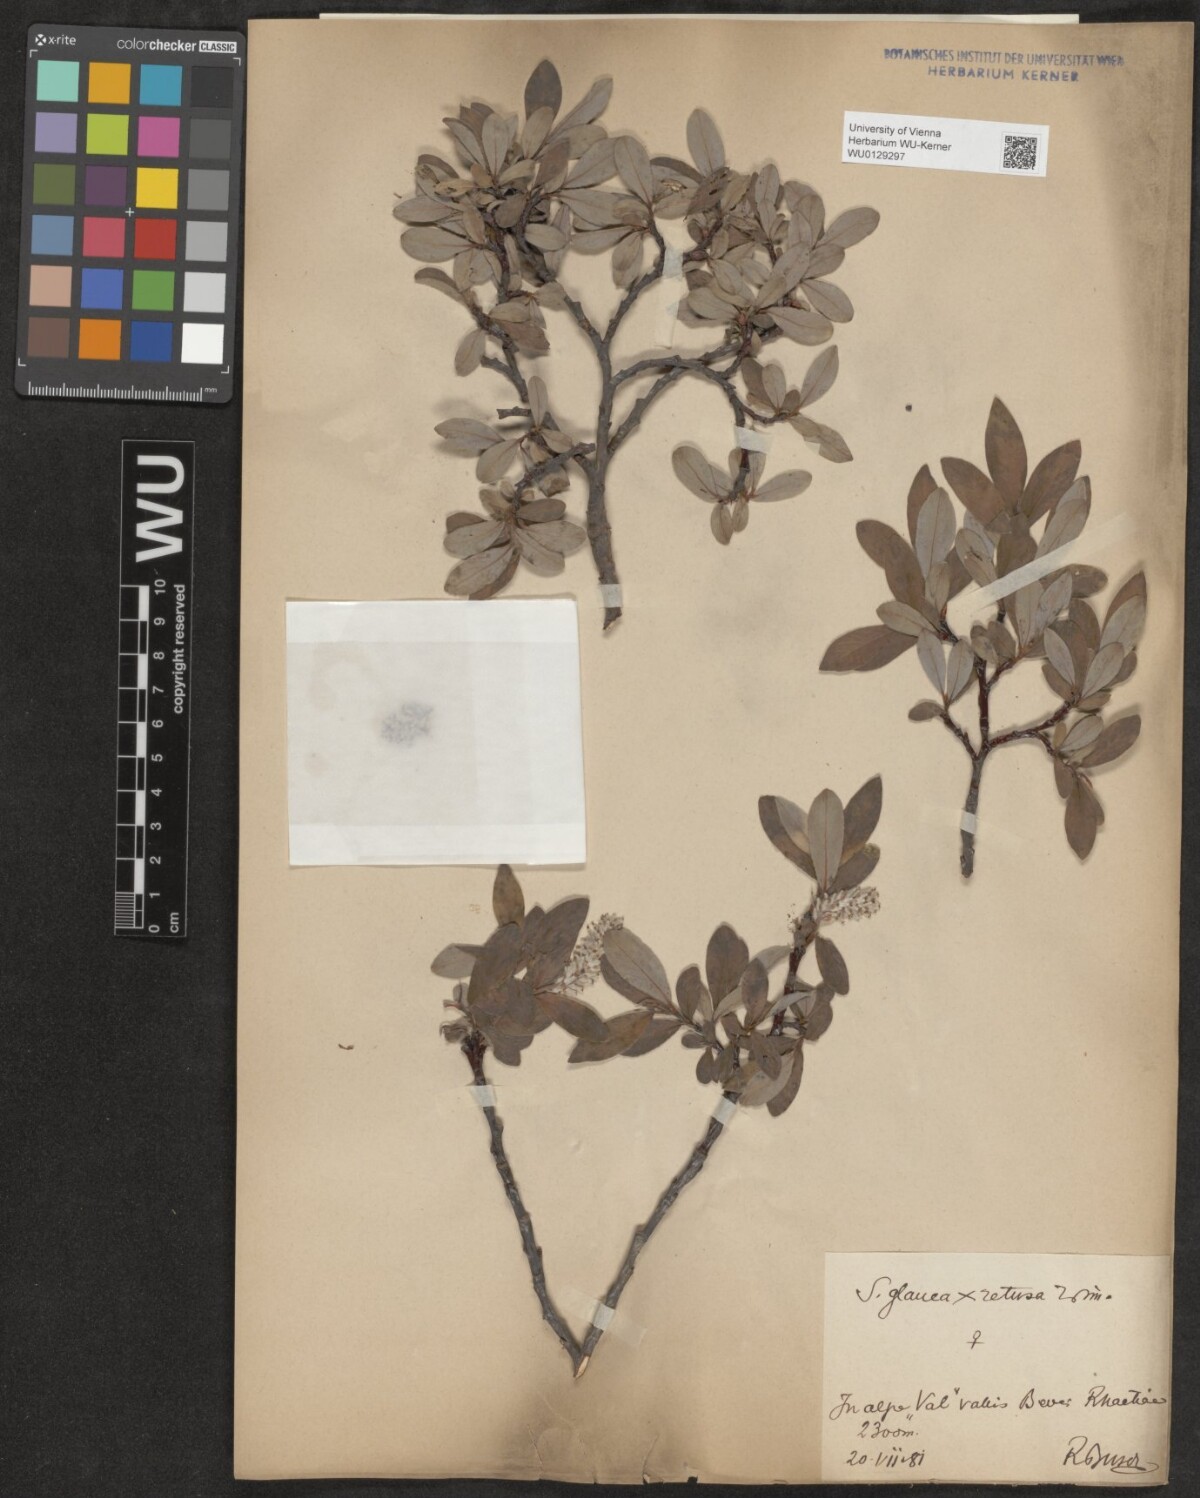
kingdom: Plantae
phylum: Tracheophyta
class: Magnoliopsida
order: Malpighiales
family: Salicaceae
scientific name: Salicaceae
